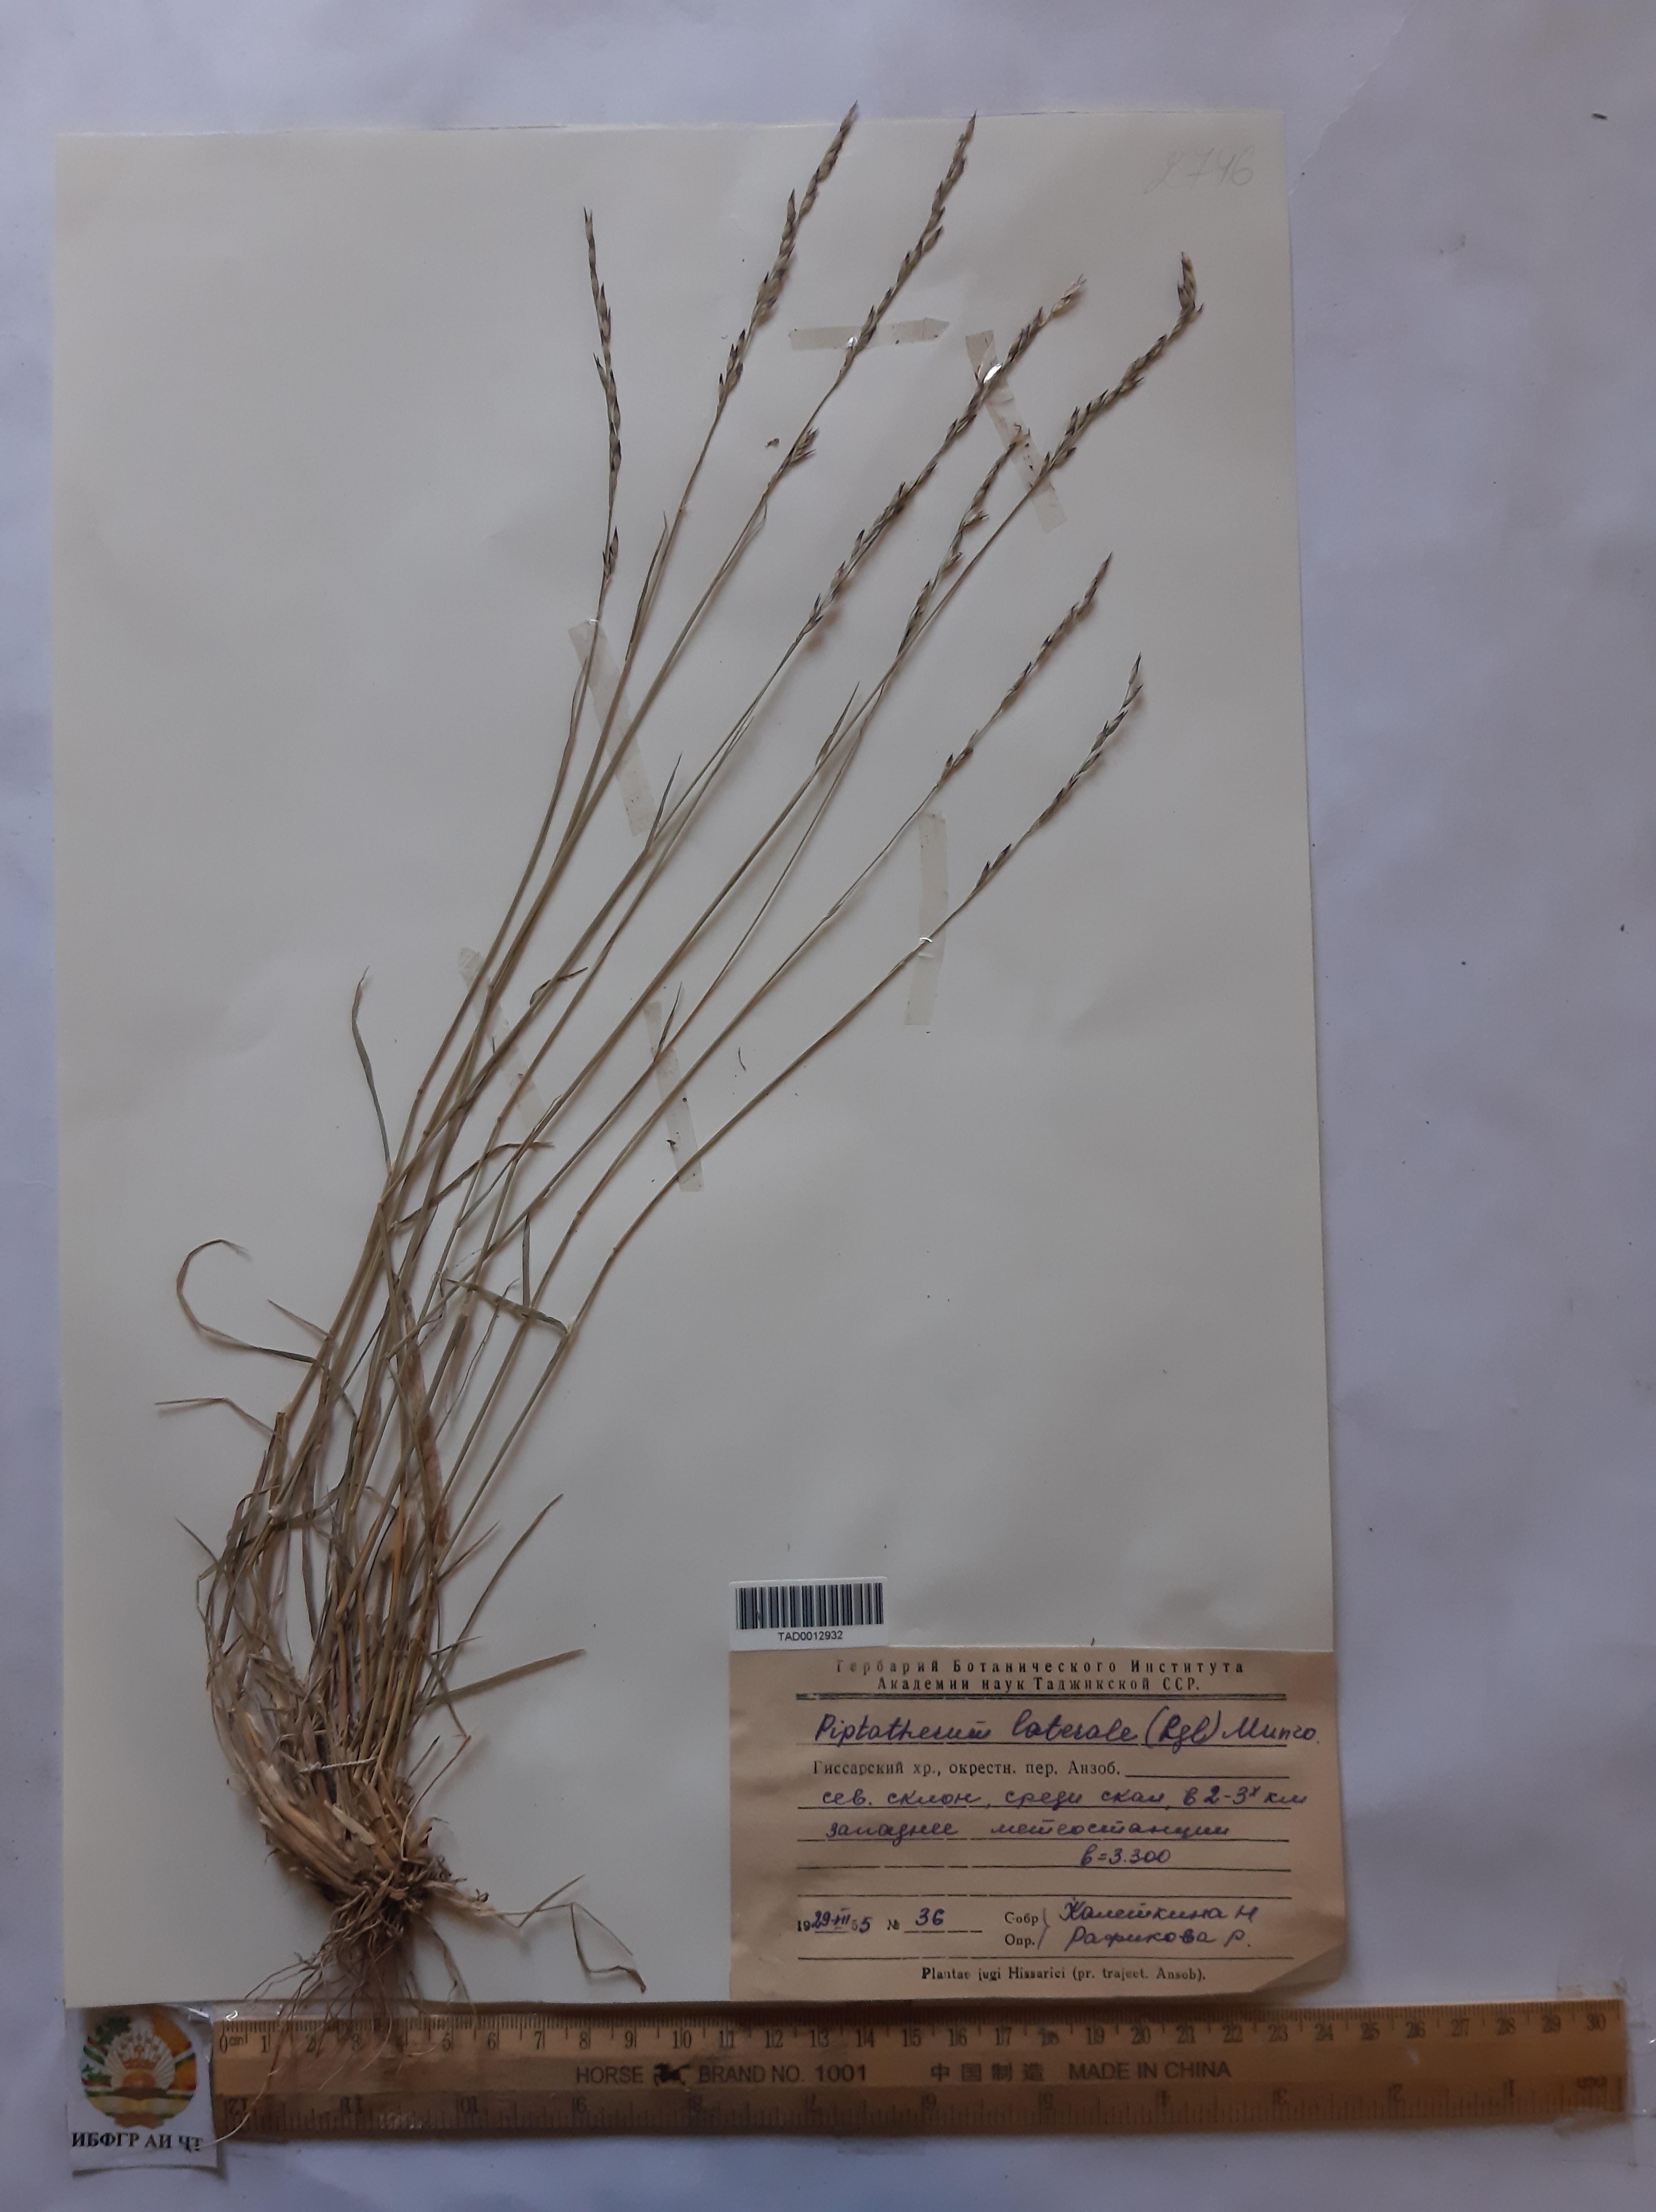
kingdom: Plantae
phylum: Tracheophyta
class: Liliopsida
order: Poales
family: Poaceae
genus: Piptatherum
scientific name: Piptatherum laterale
